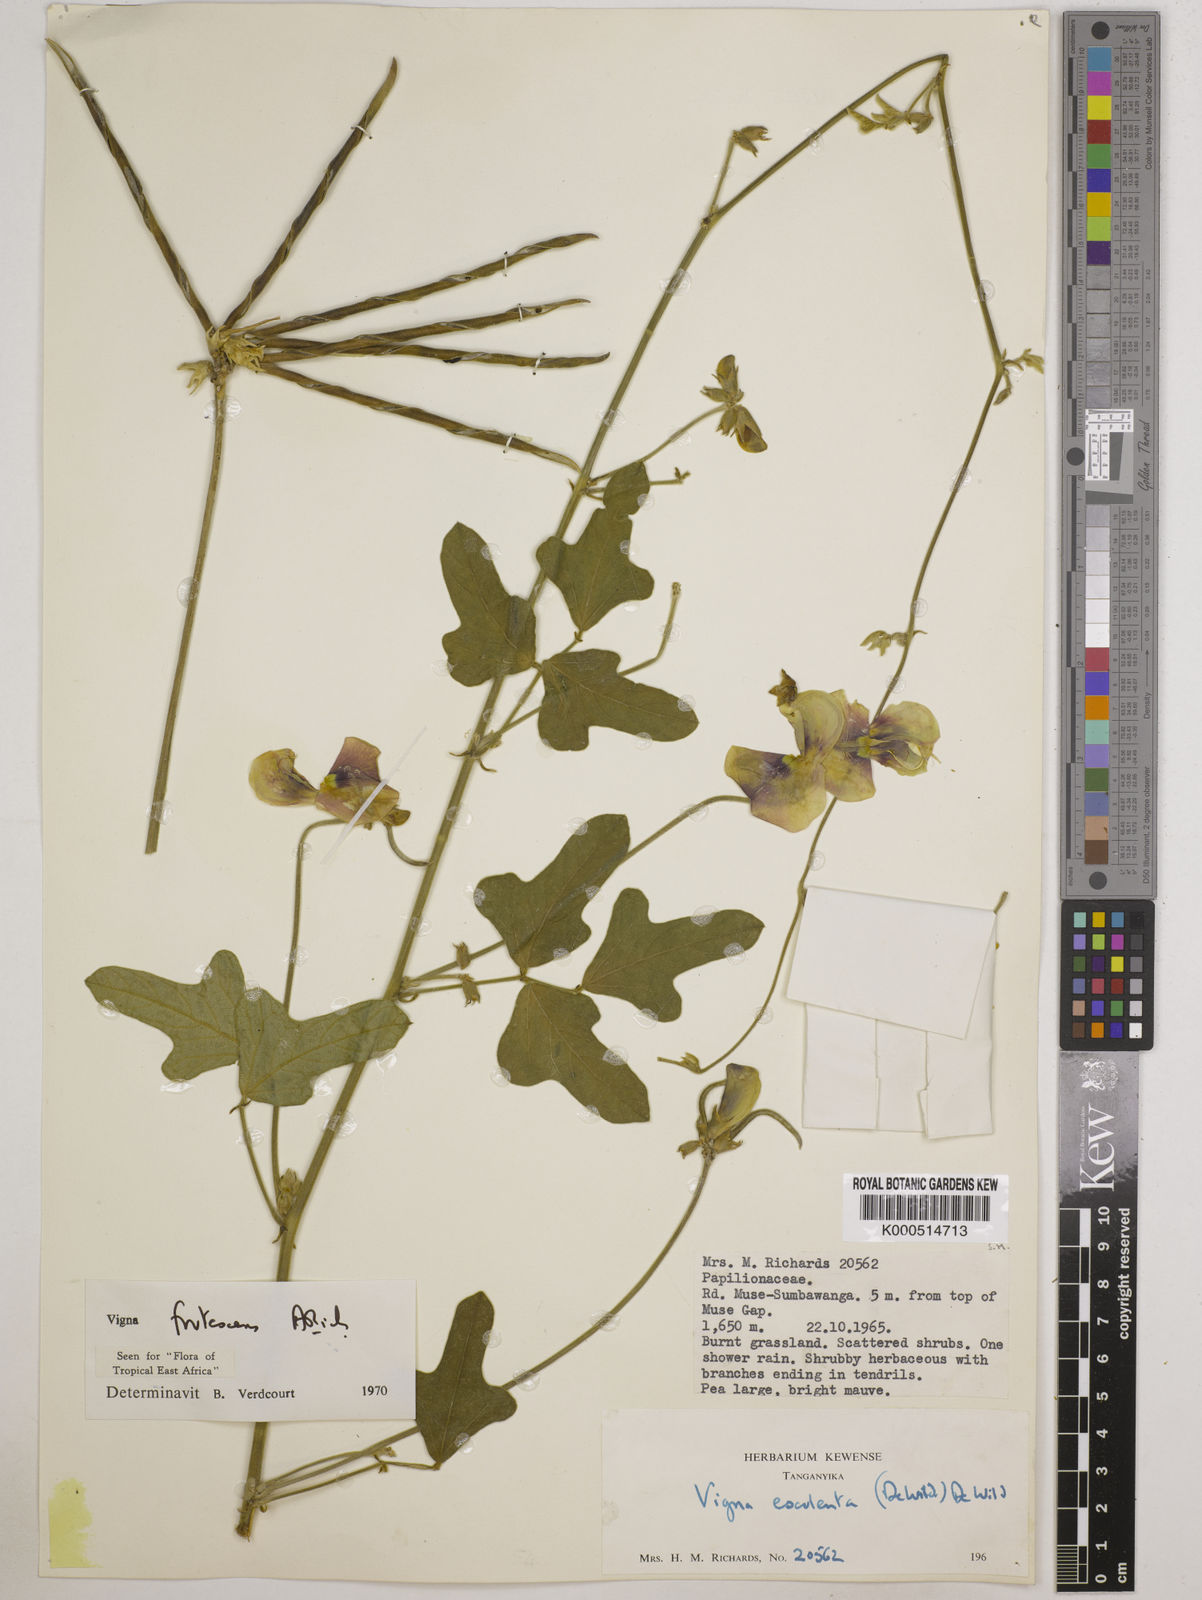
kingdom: Plantae
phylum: Tracheophyta
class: Magnoliopsida
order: Fabales
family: Fabaceae
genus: Vigna
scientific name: Vigna frutescens
